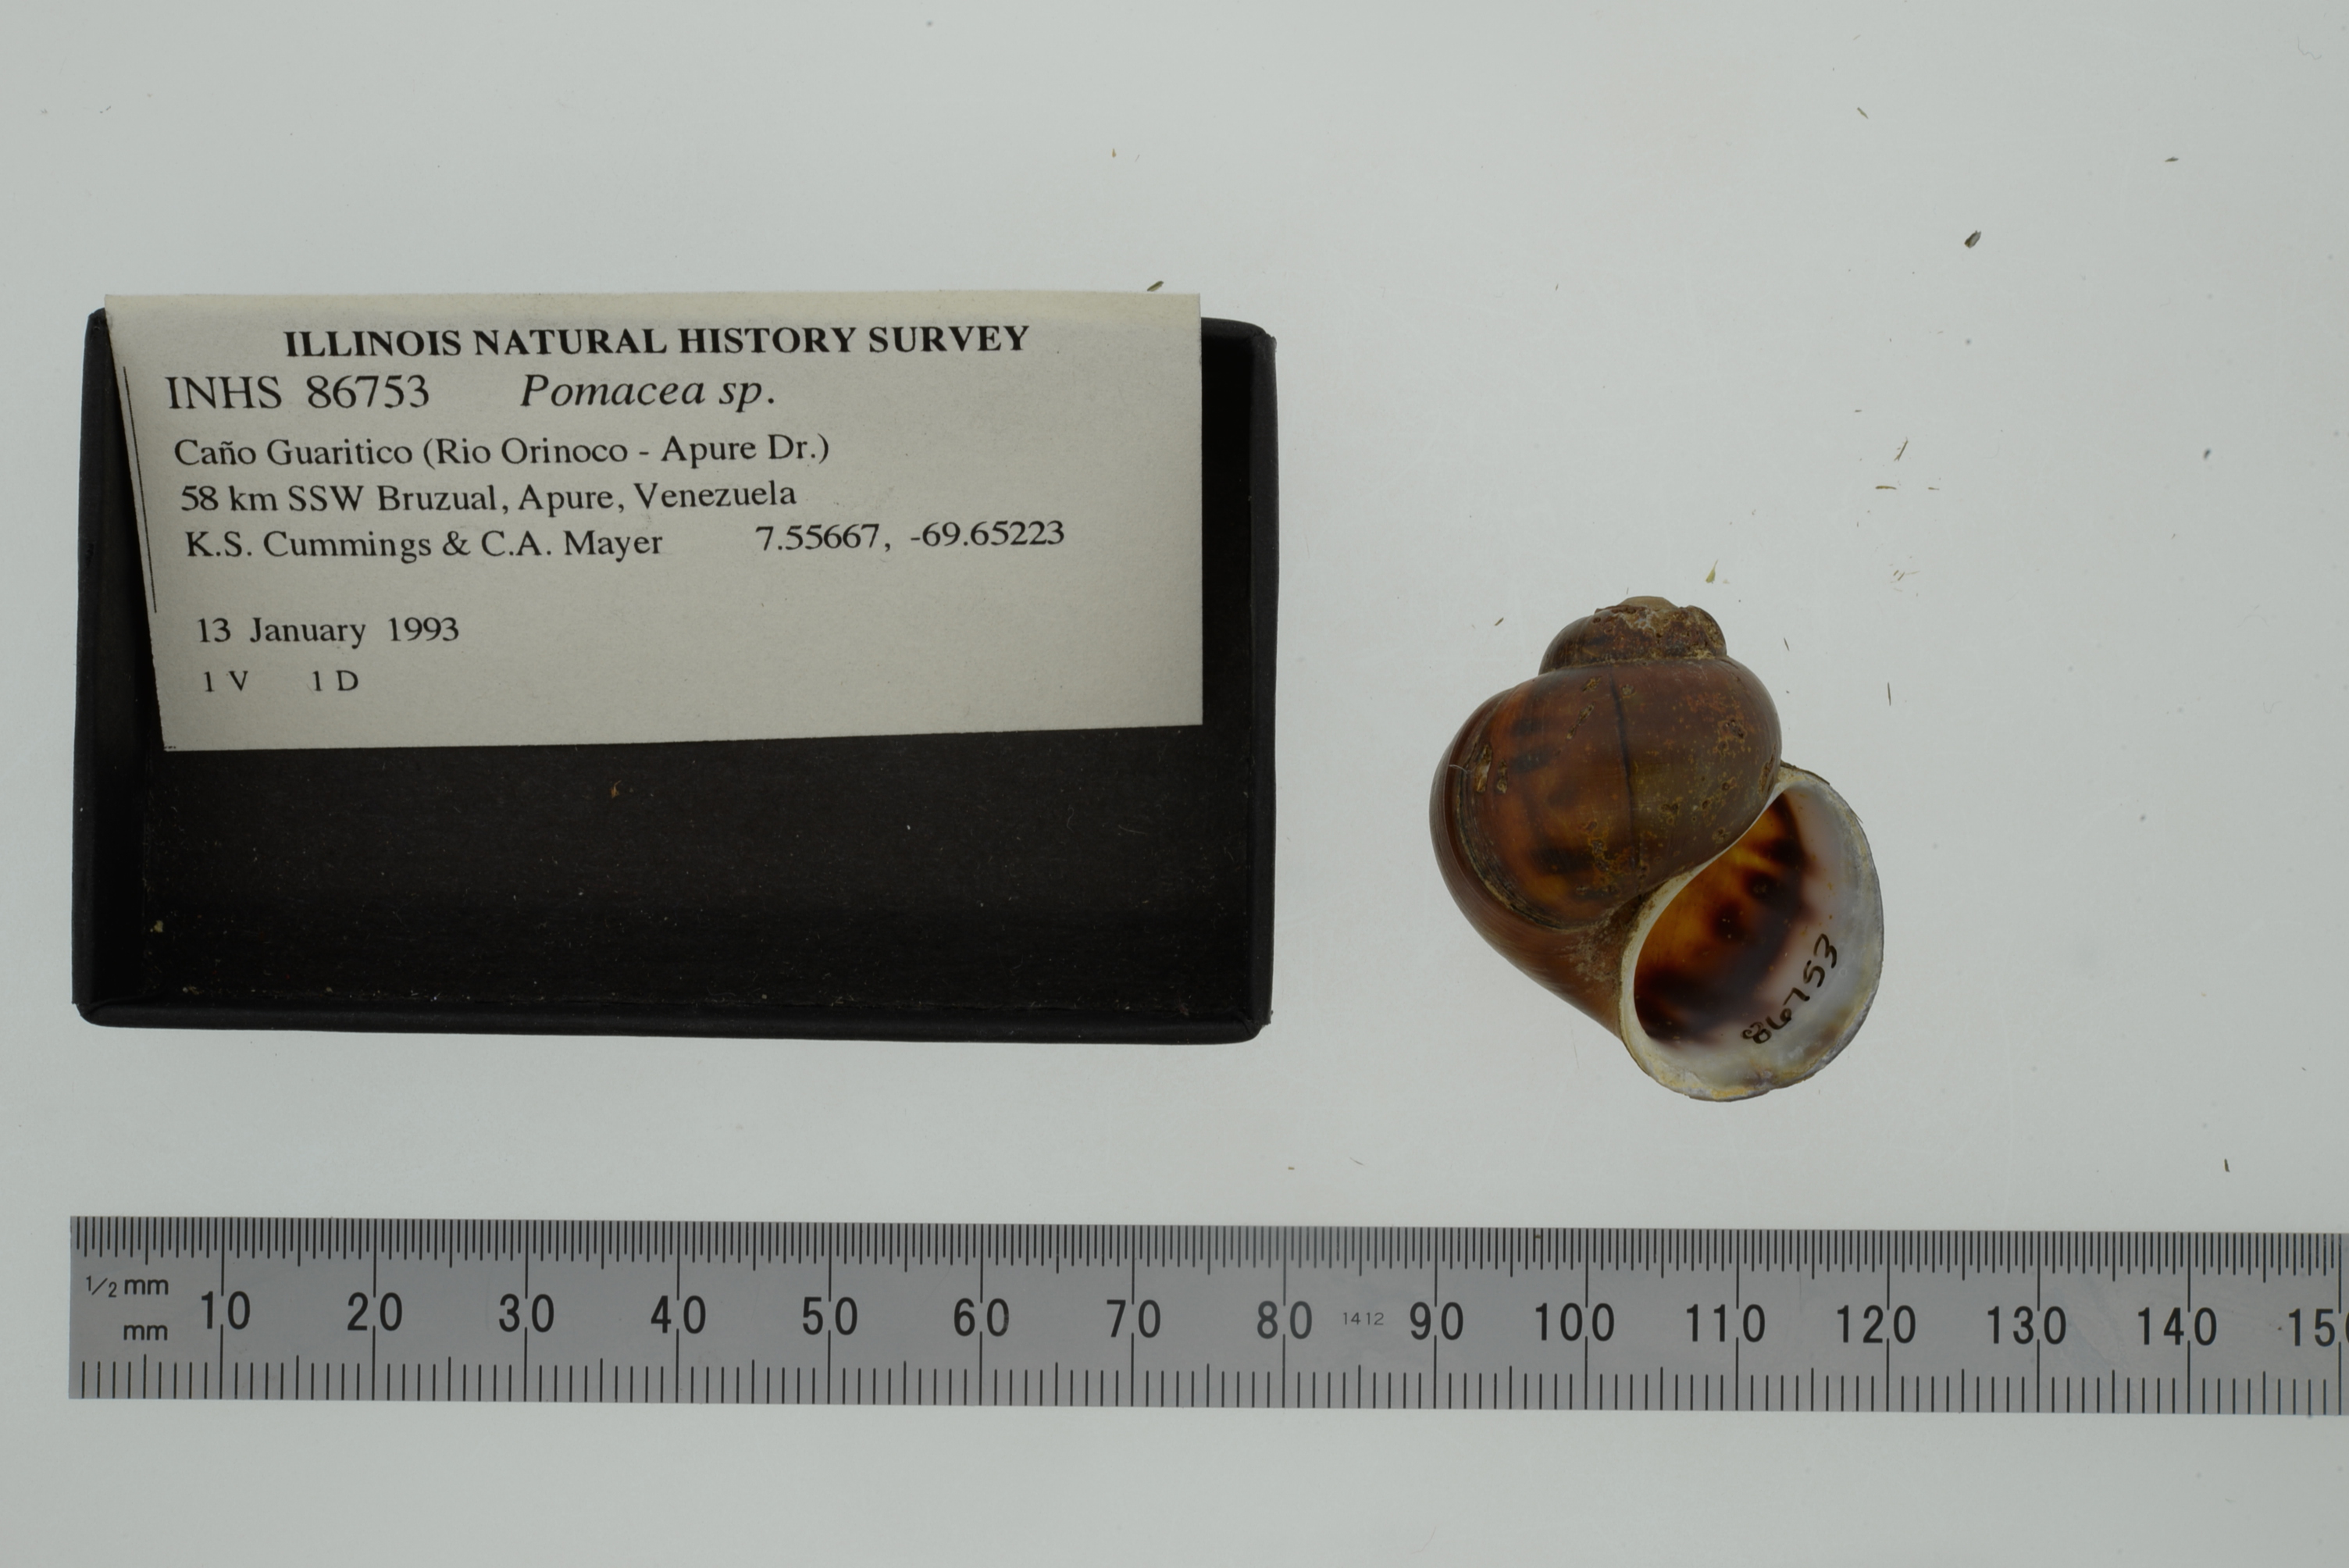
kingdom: Animalia
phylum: Mollusca
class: Gastropoda
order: Architaenioglossa
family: Ampullariidae
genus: Pomacea
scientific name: Pomacea
